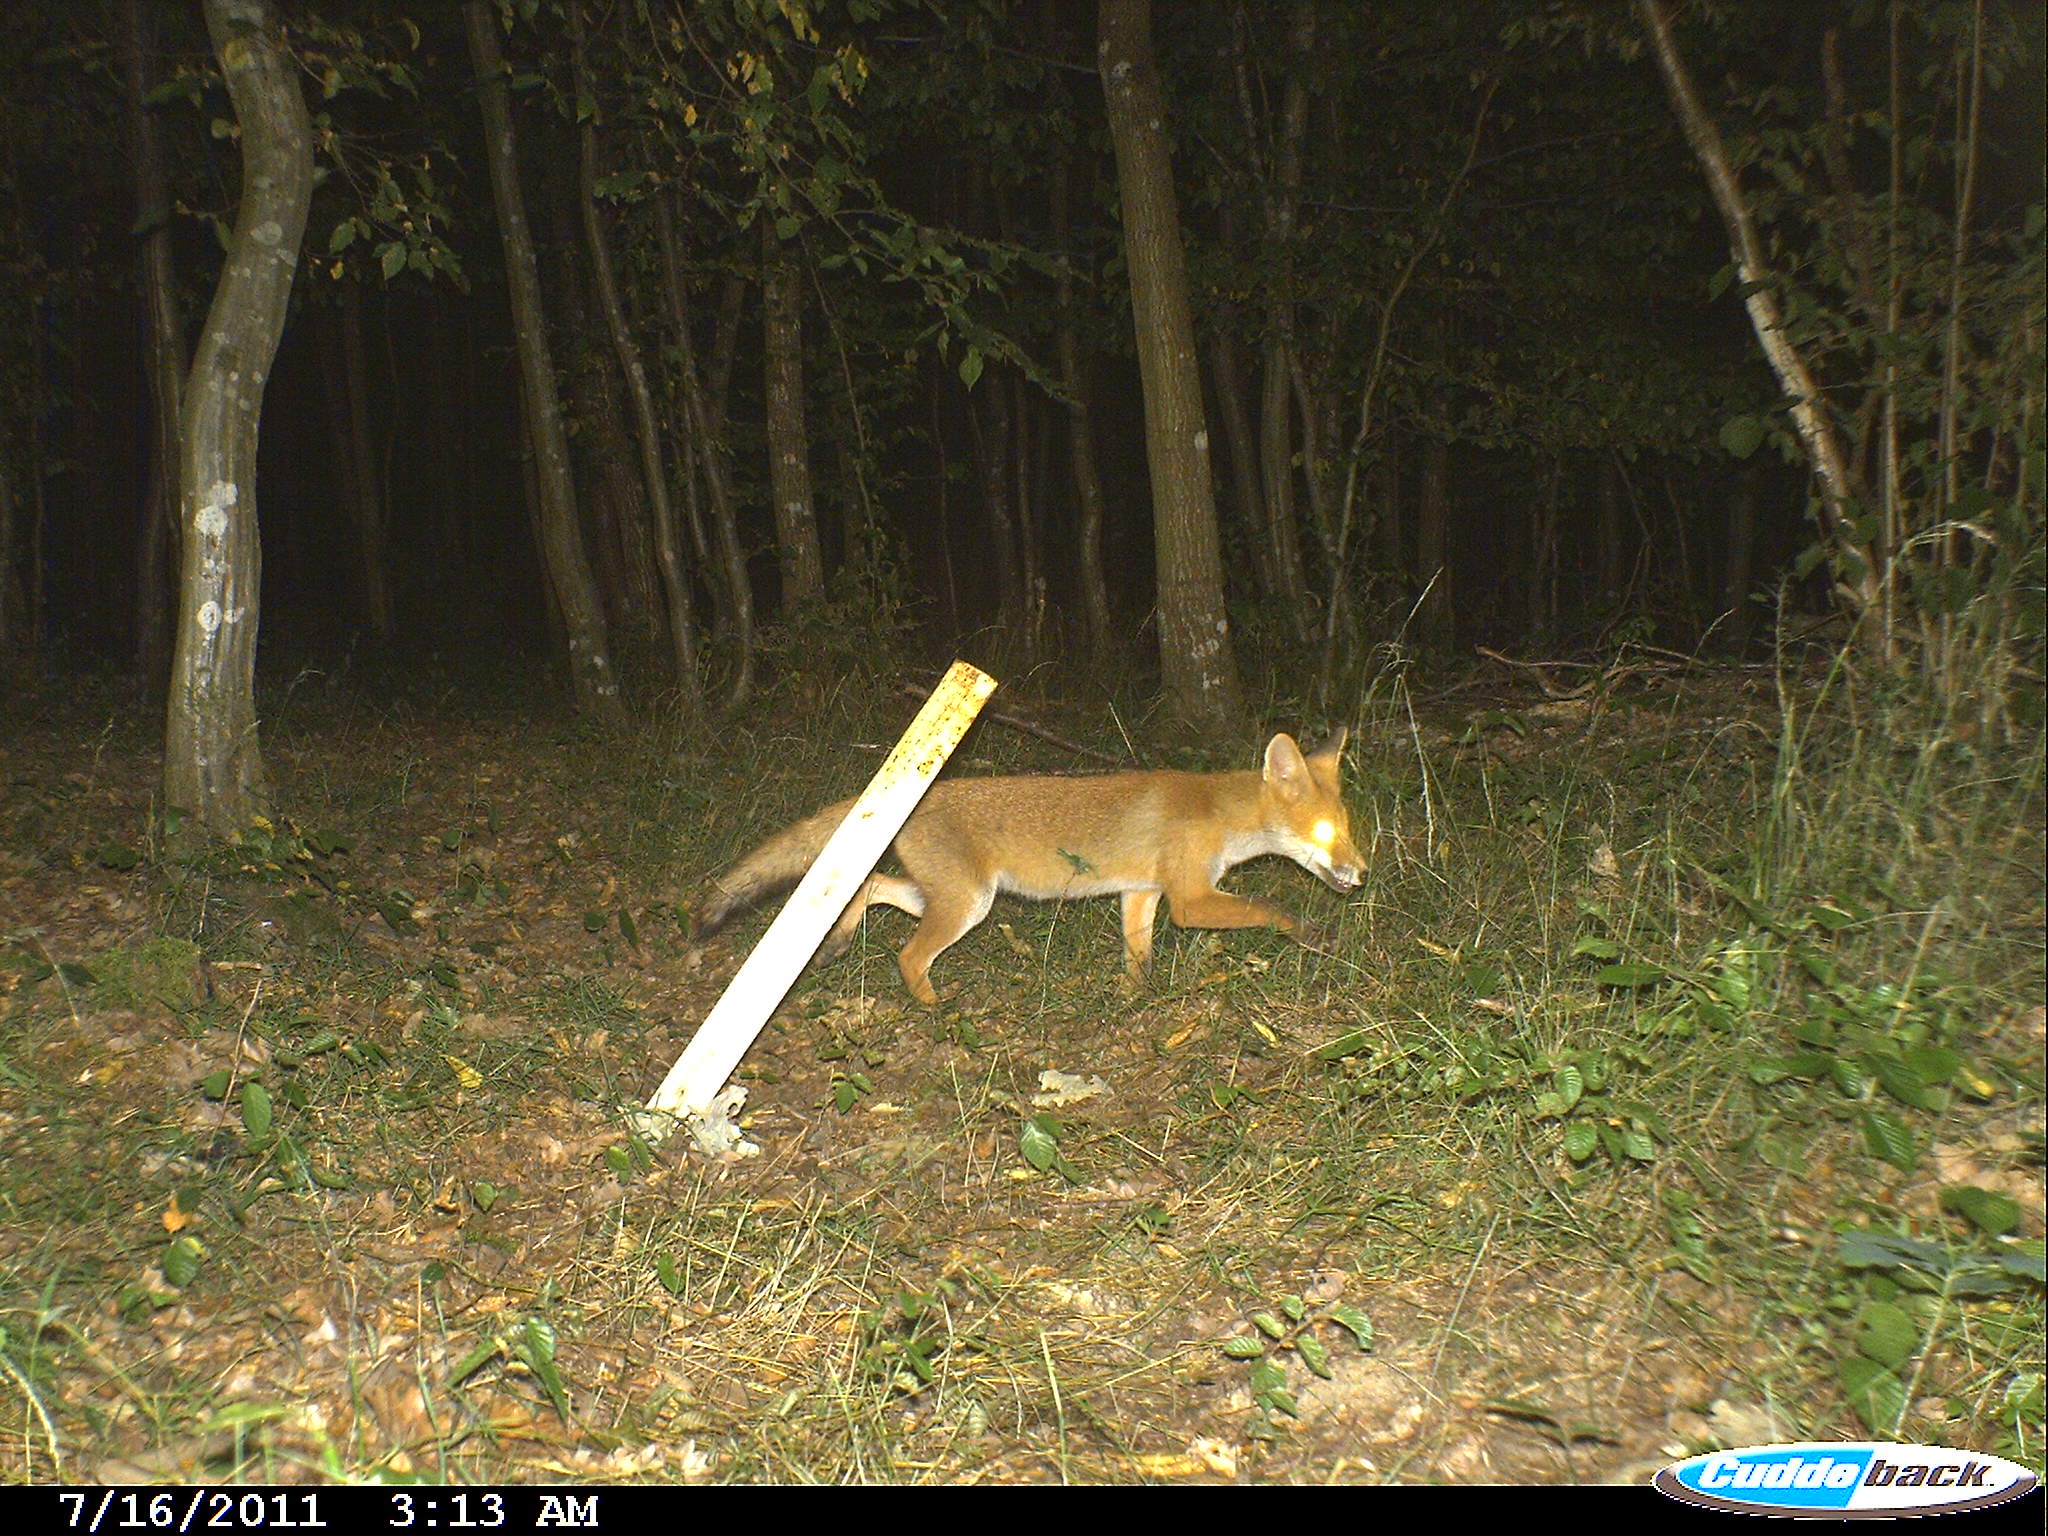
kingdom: Animalia
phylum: Chordata
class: Mammalia
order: Carnivora
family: Canidae
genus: Vulpes
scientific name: Vulpes vulpes
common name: Red fox
